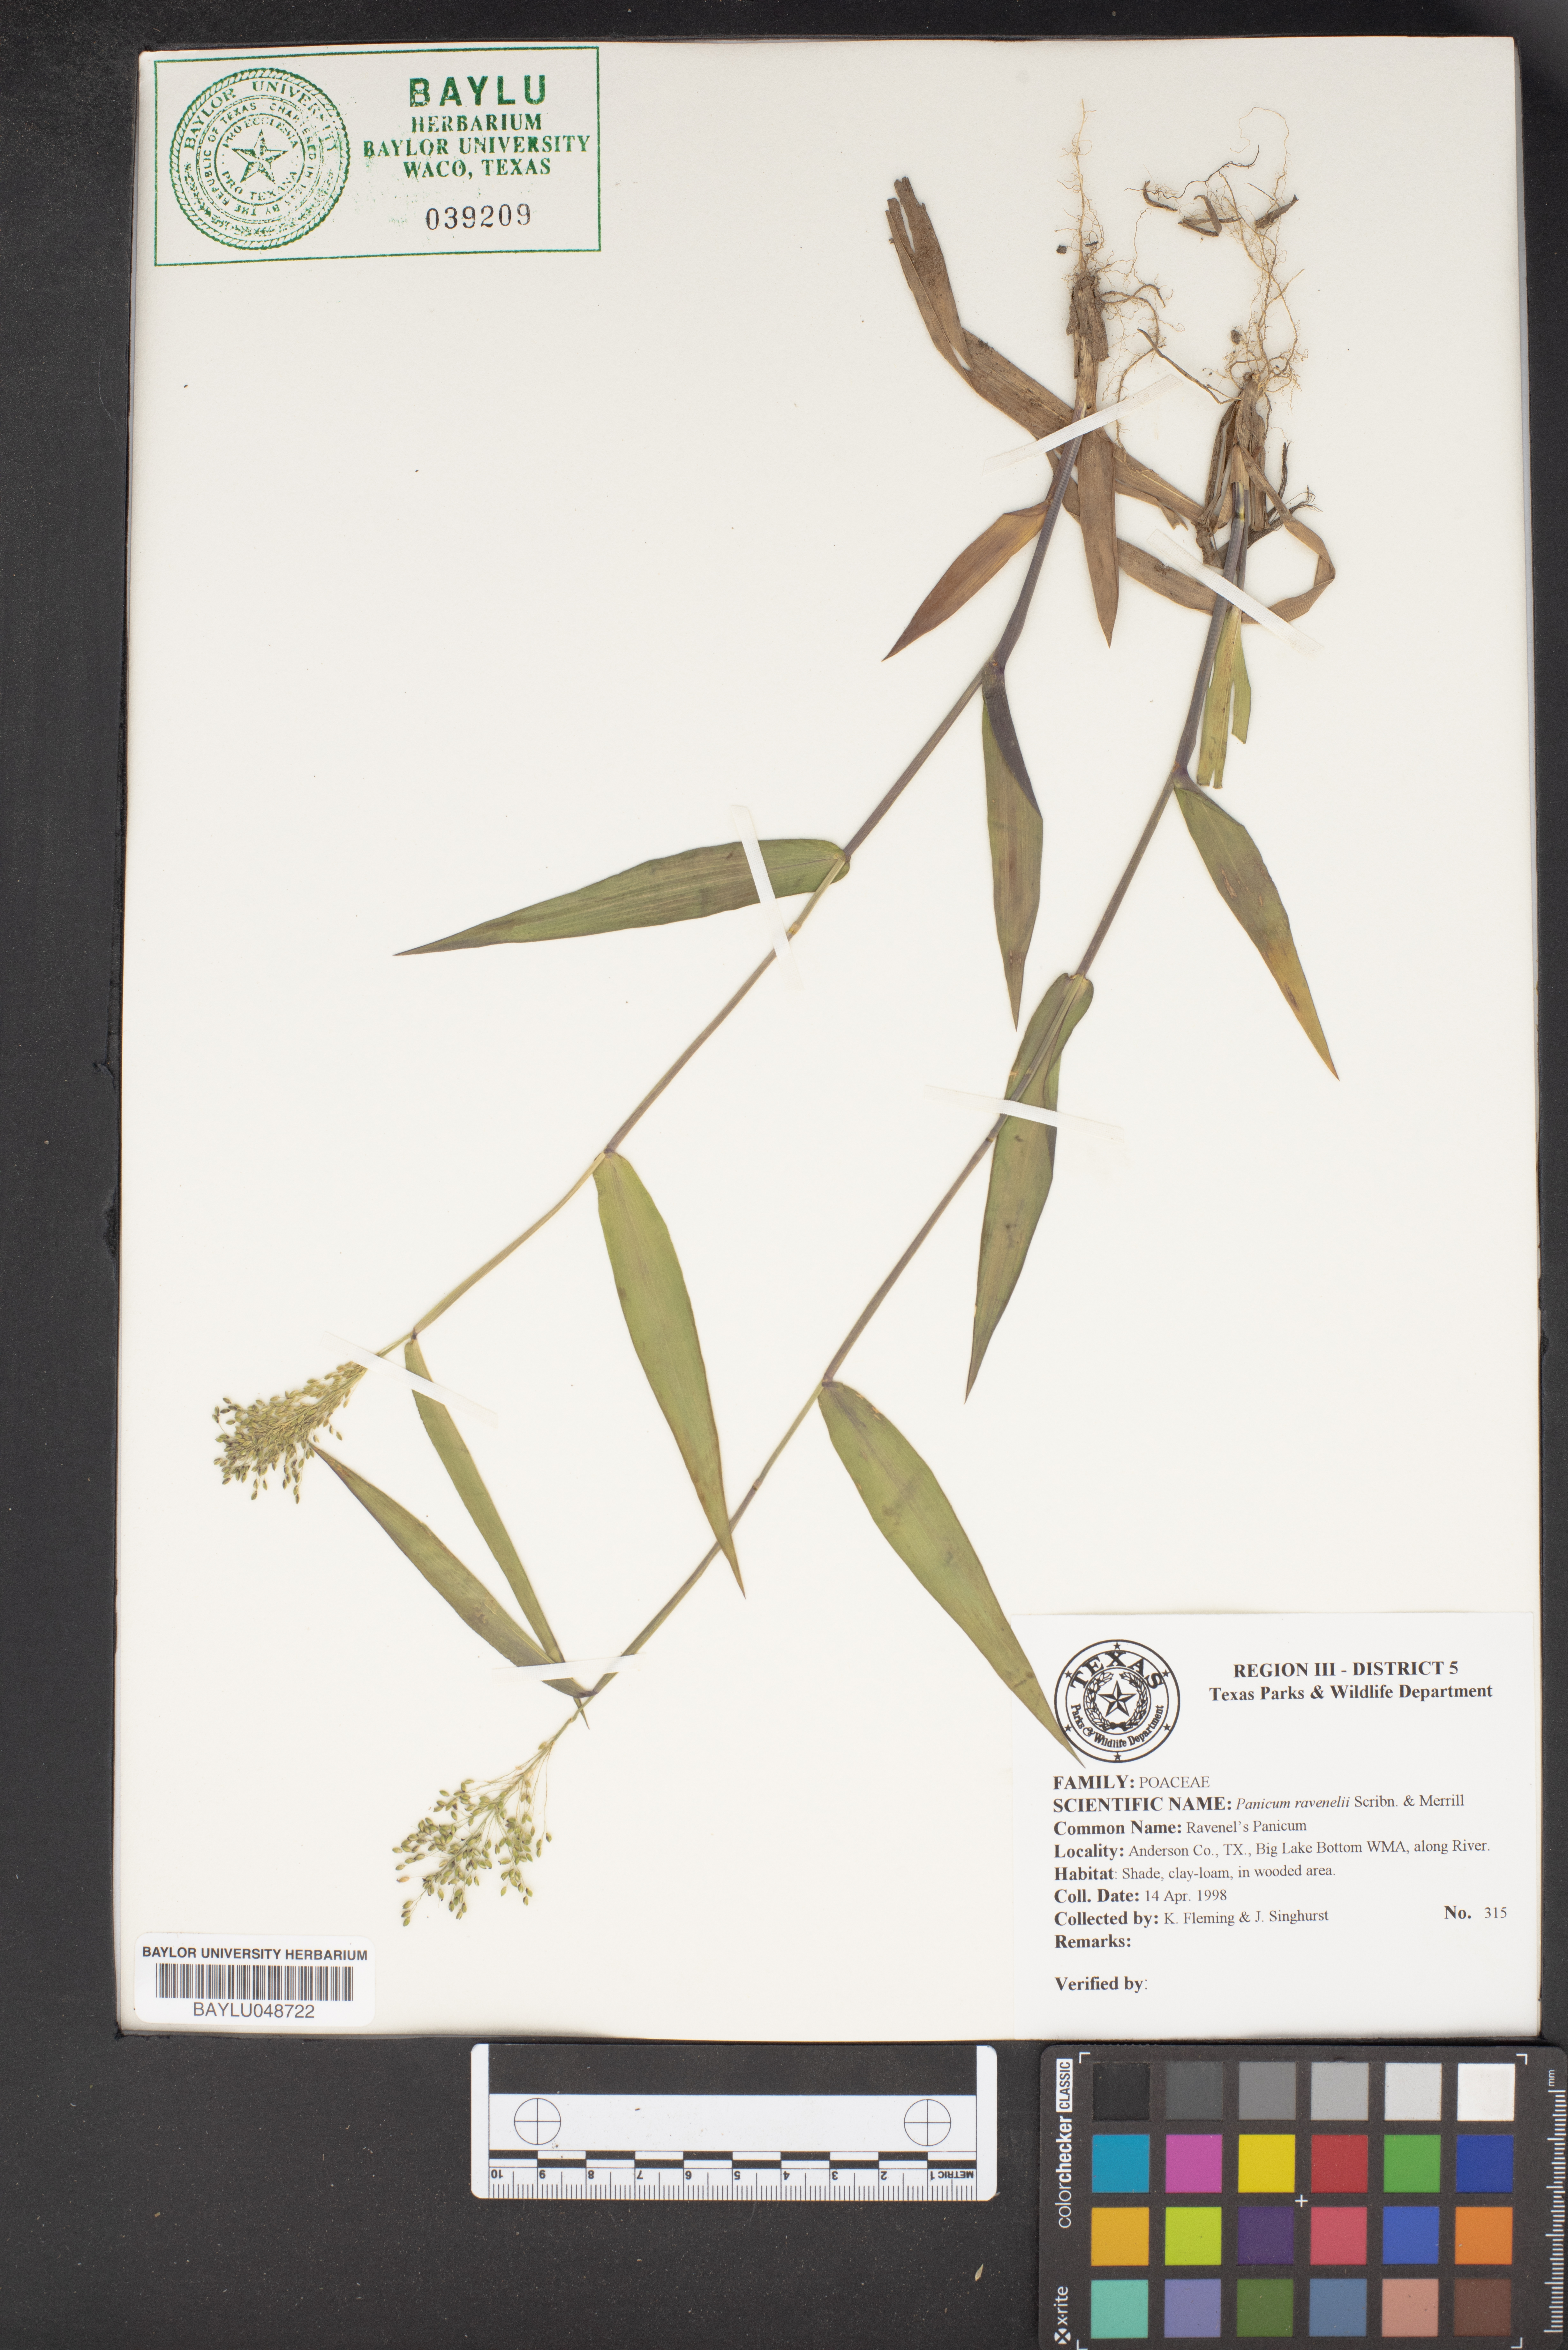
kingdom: Plantae
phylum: Tracheophyta
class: Liliopsida
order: Poales
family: Poaceae
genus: Dichanthelium
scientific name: Dichanthelium ravenelii
